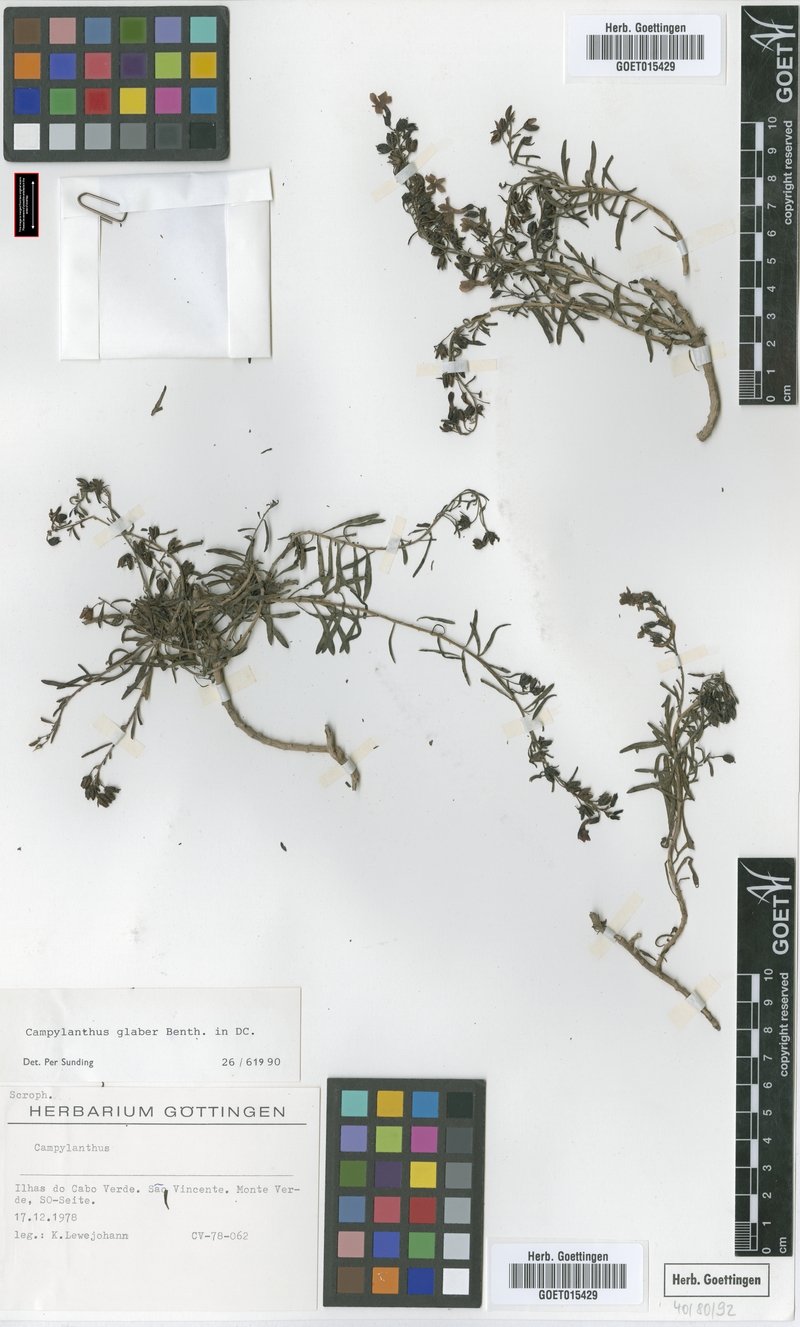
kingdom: Plantae
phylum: Tracheophyta
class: Magnoliopsida
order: Lamiales
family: Plantaginaceae
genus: Campylanthus
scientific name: Campylanthus glaber
